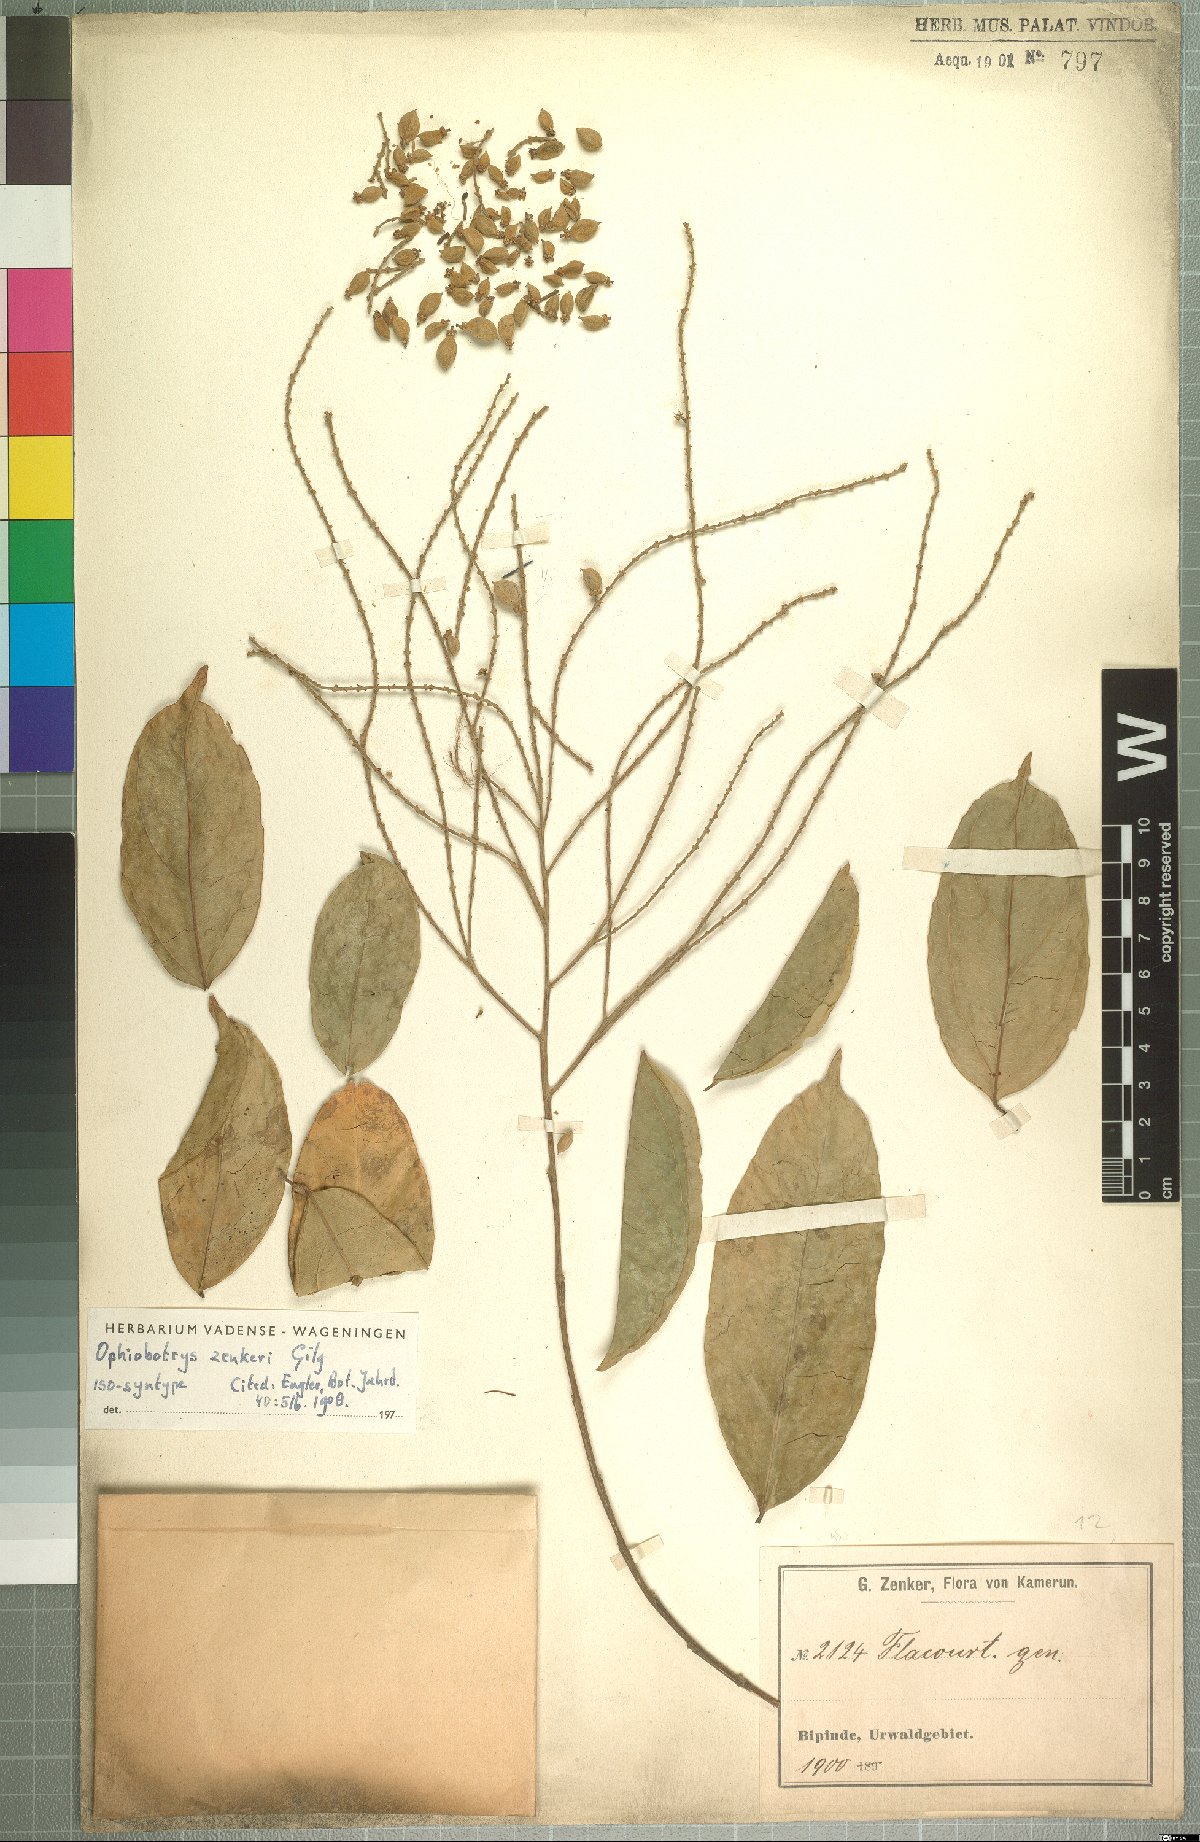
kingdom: Plantae
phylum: Tracheophyta
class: Magnoliopsida
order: Malpighiales
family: Salicaceae
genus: Ophiobotrys
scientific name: Ophiobotrys zenkeri
